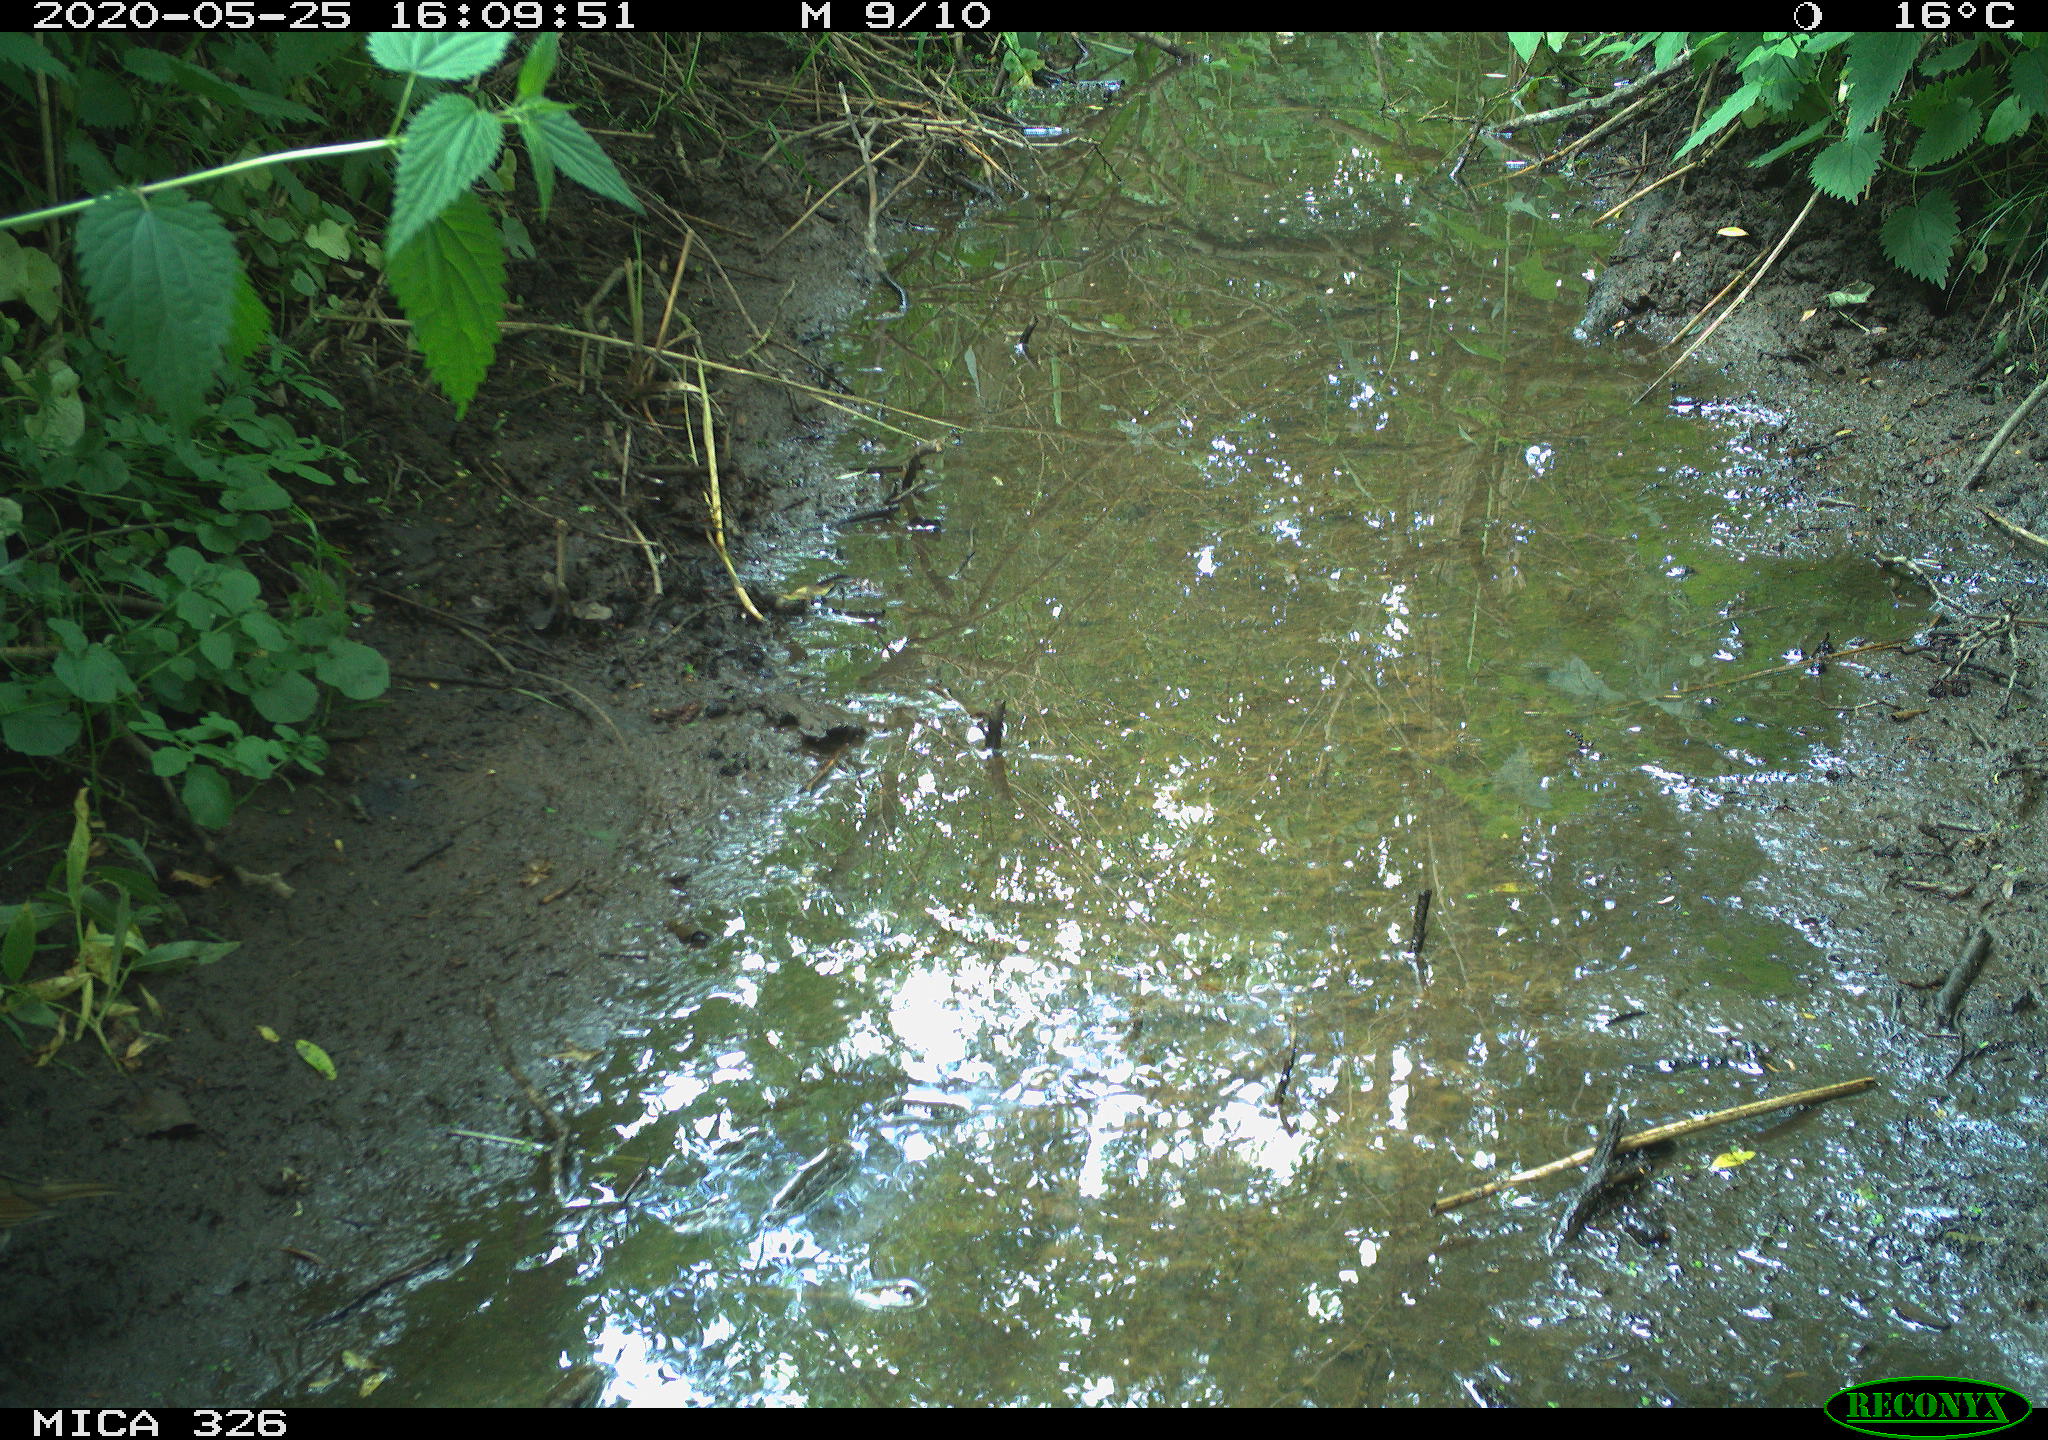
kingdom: Animalia
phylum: Chordata
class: Aves
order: Passeriformes
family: Turdidae
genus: Turdus
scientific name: Turdus philomelos
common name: Song thrush
